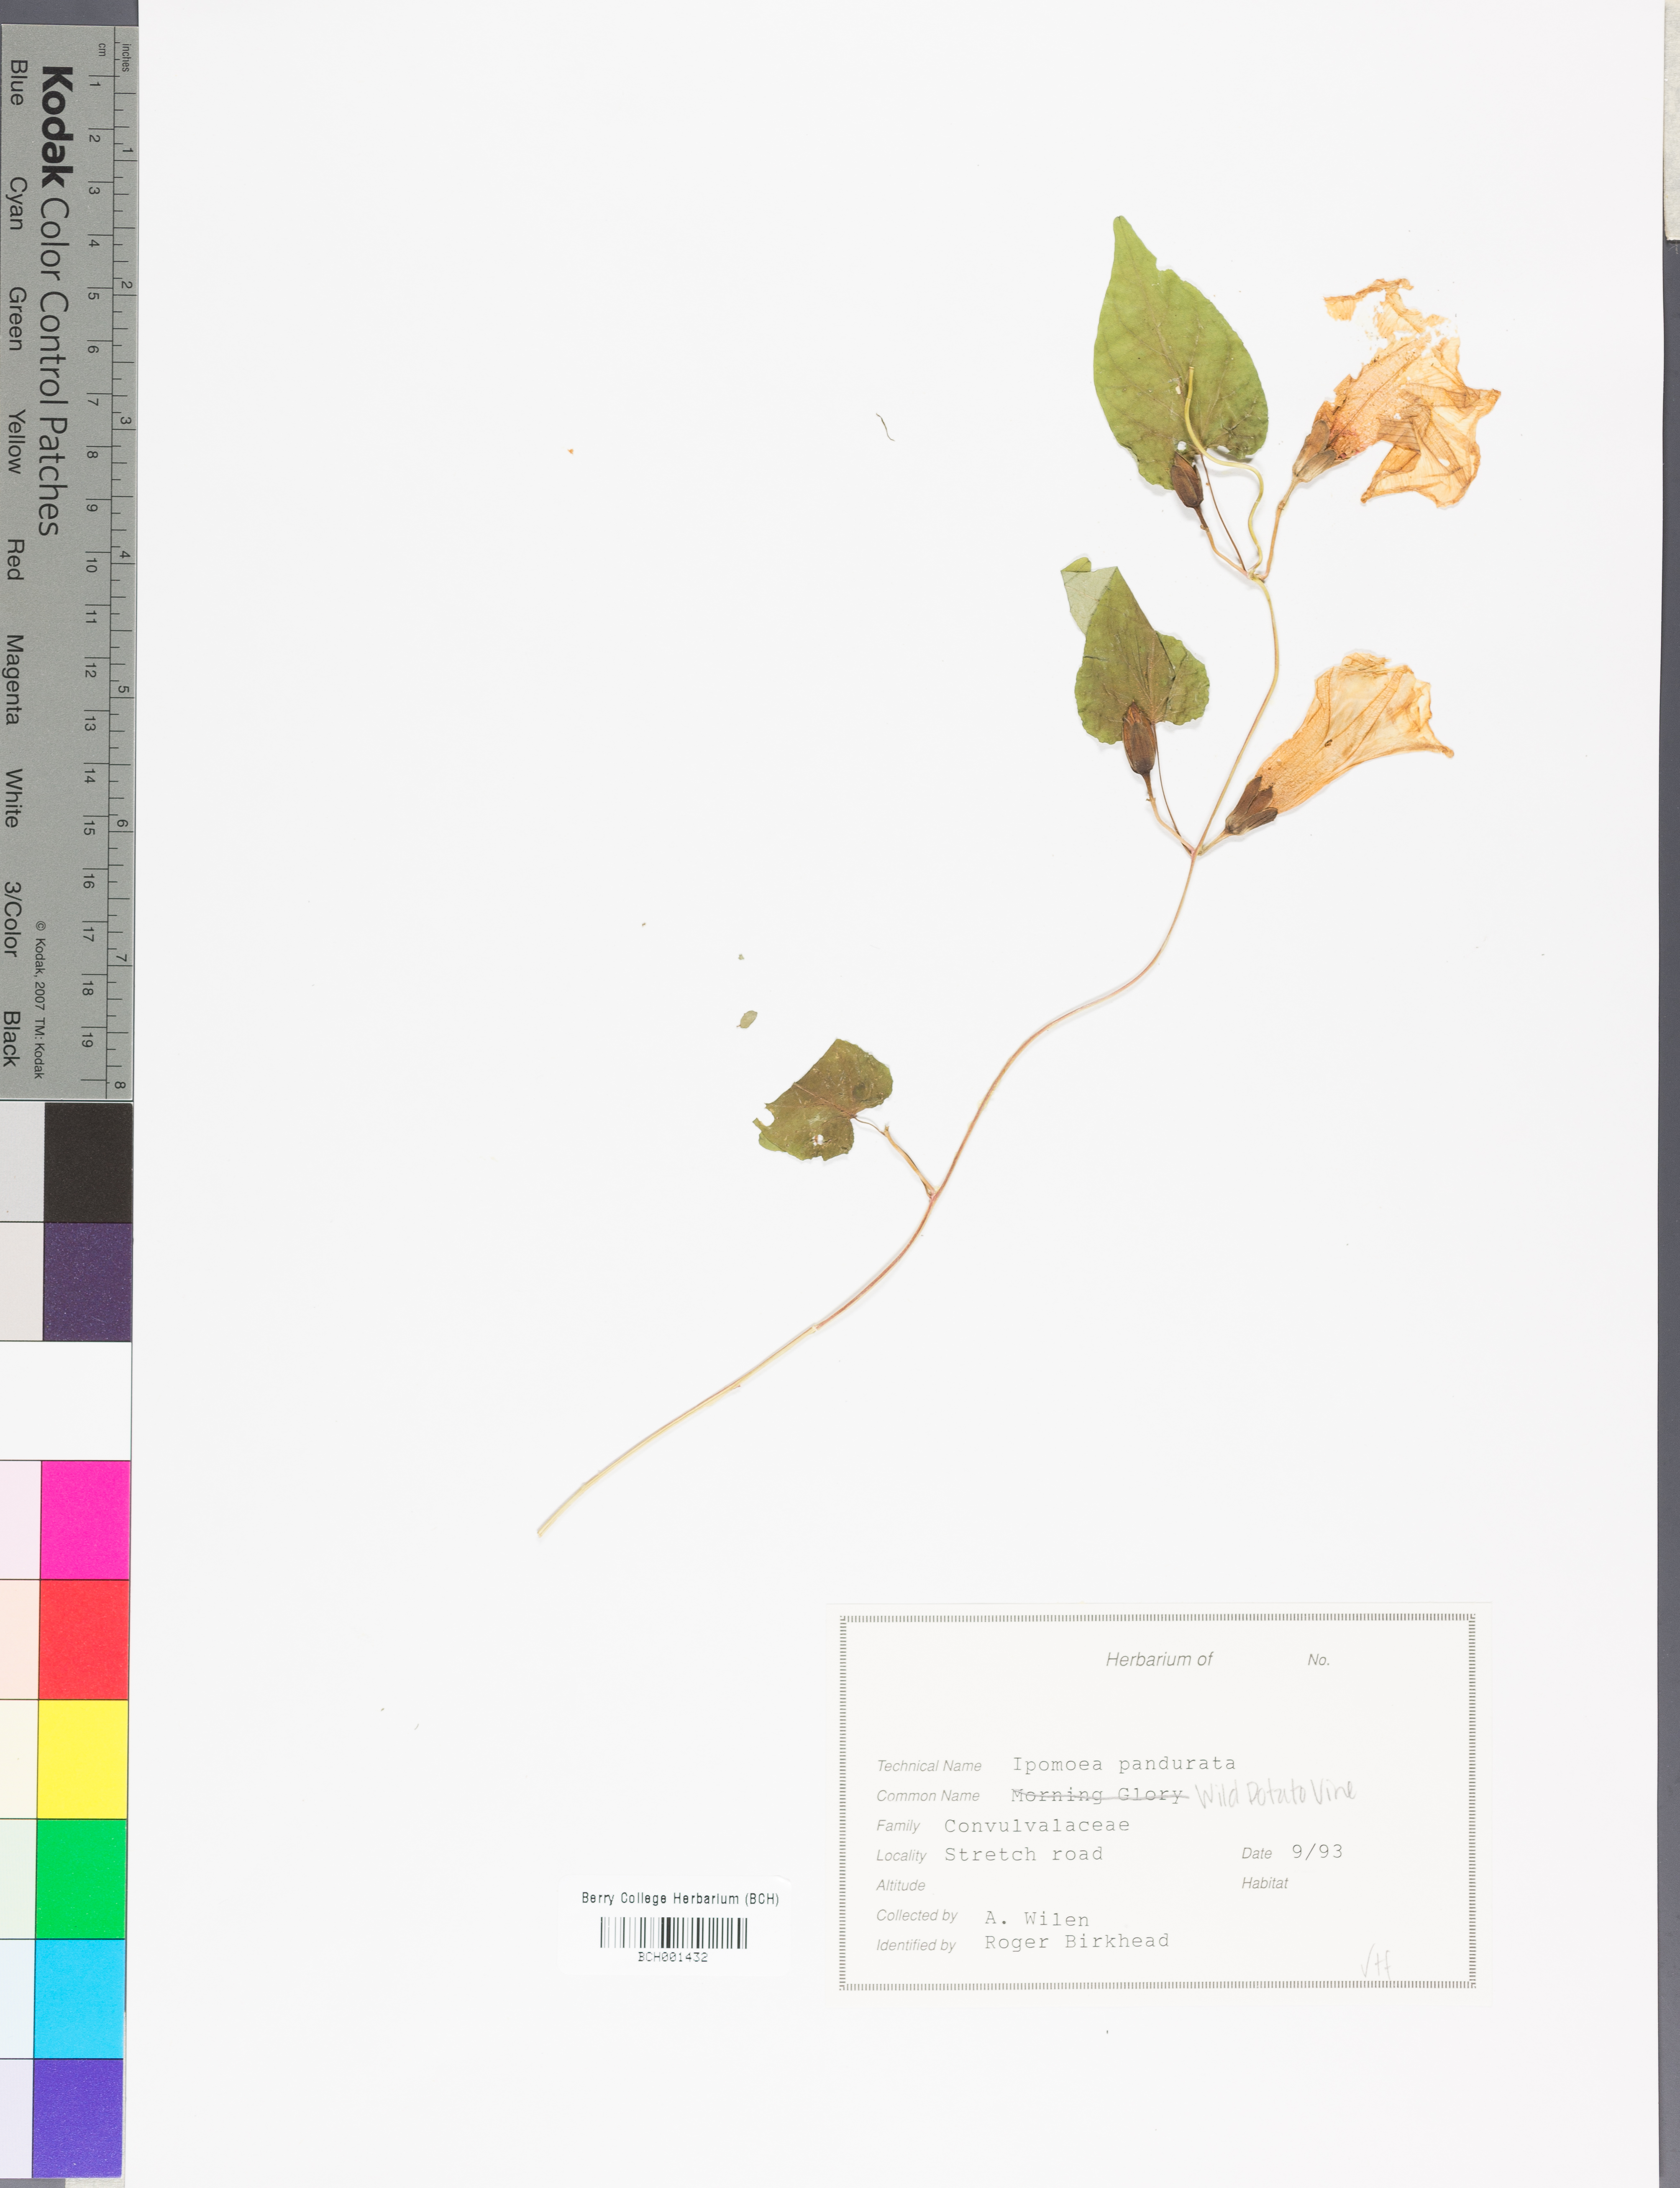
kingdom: Plantae
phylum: Tracheophyta
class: Magnoliopsida
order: Solanales
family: Convolvulaceae
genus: Ipomoea
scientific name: Ipomoea pandurata
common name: Man-of-the-earth
